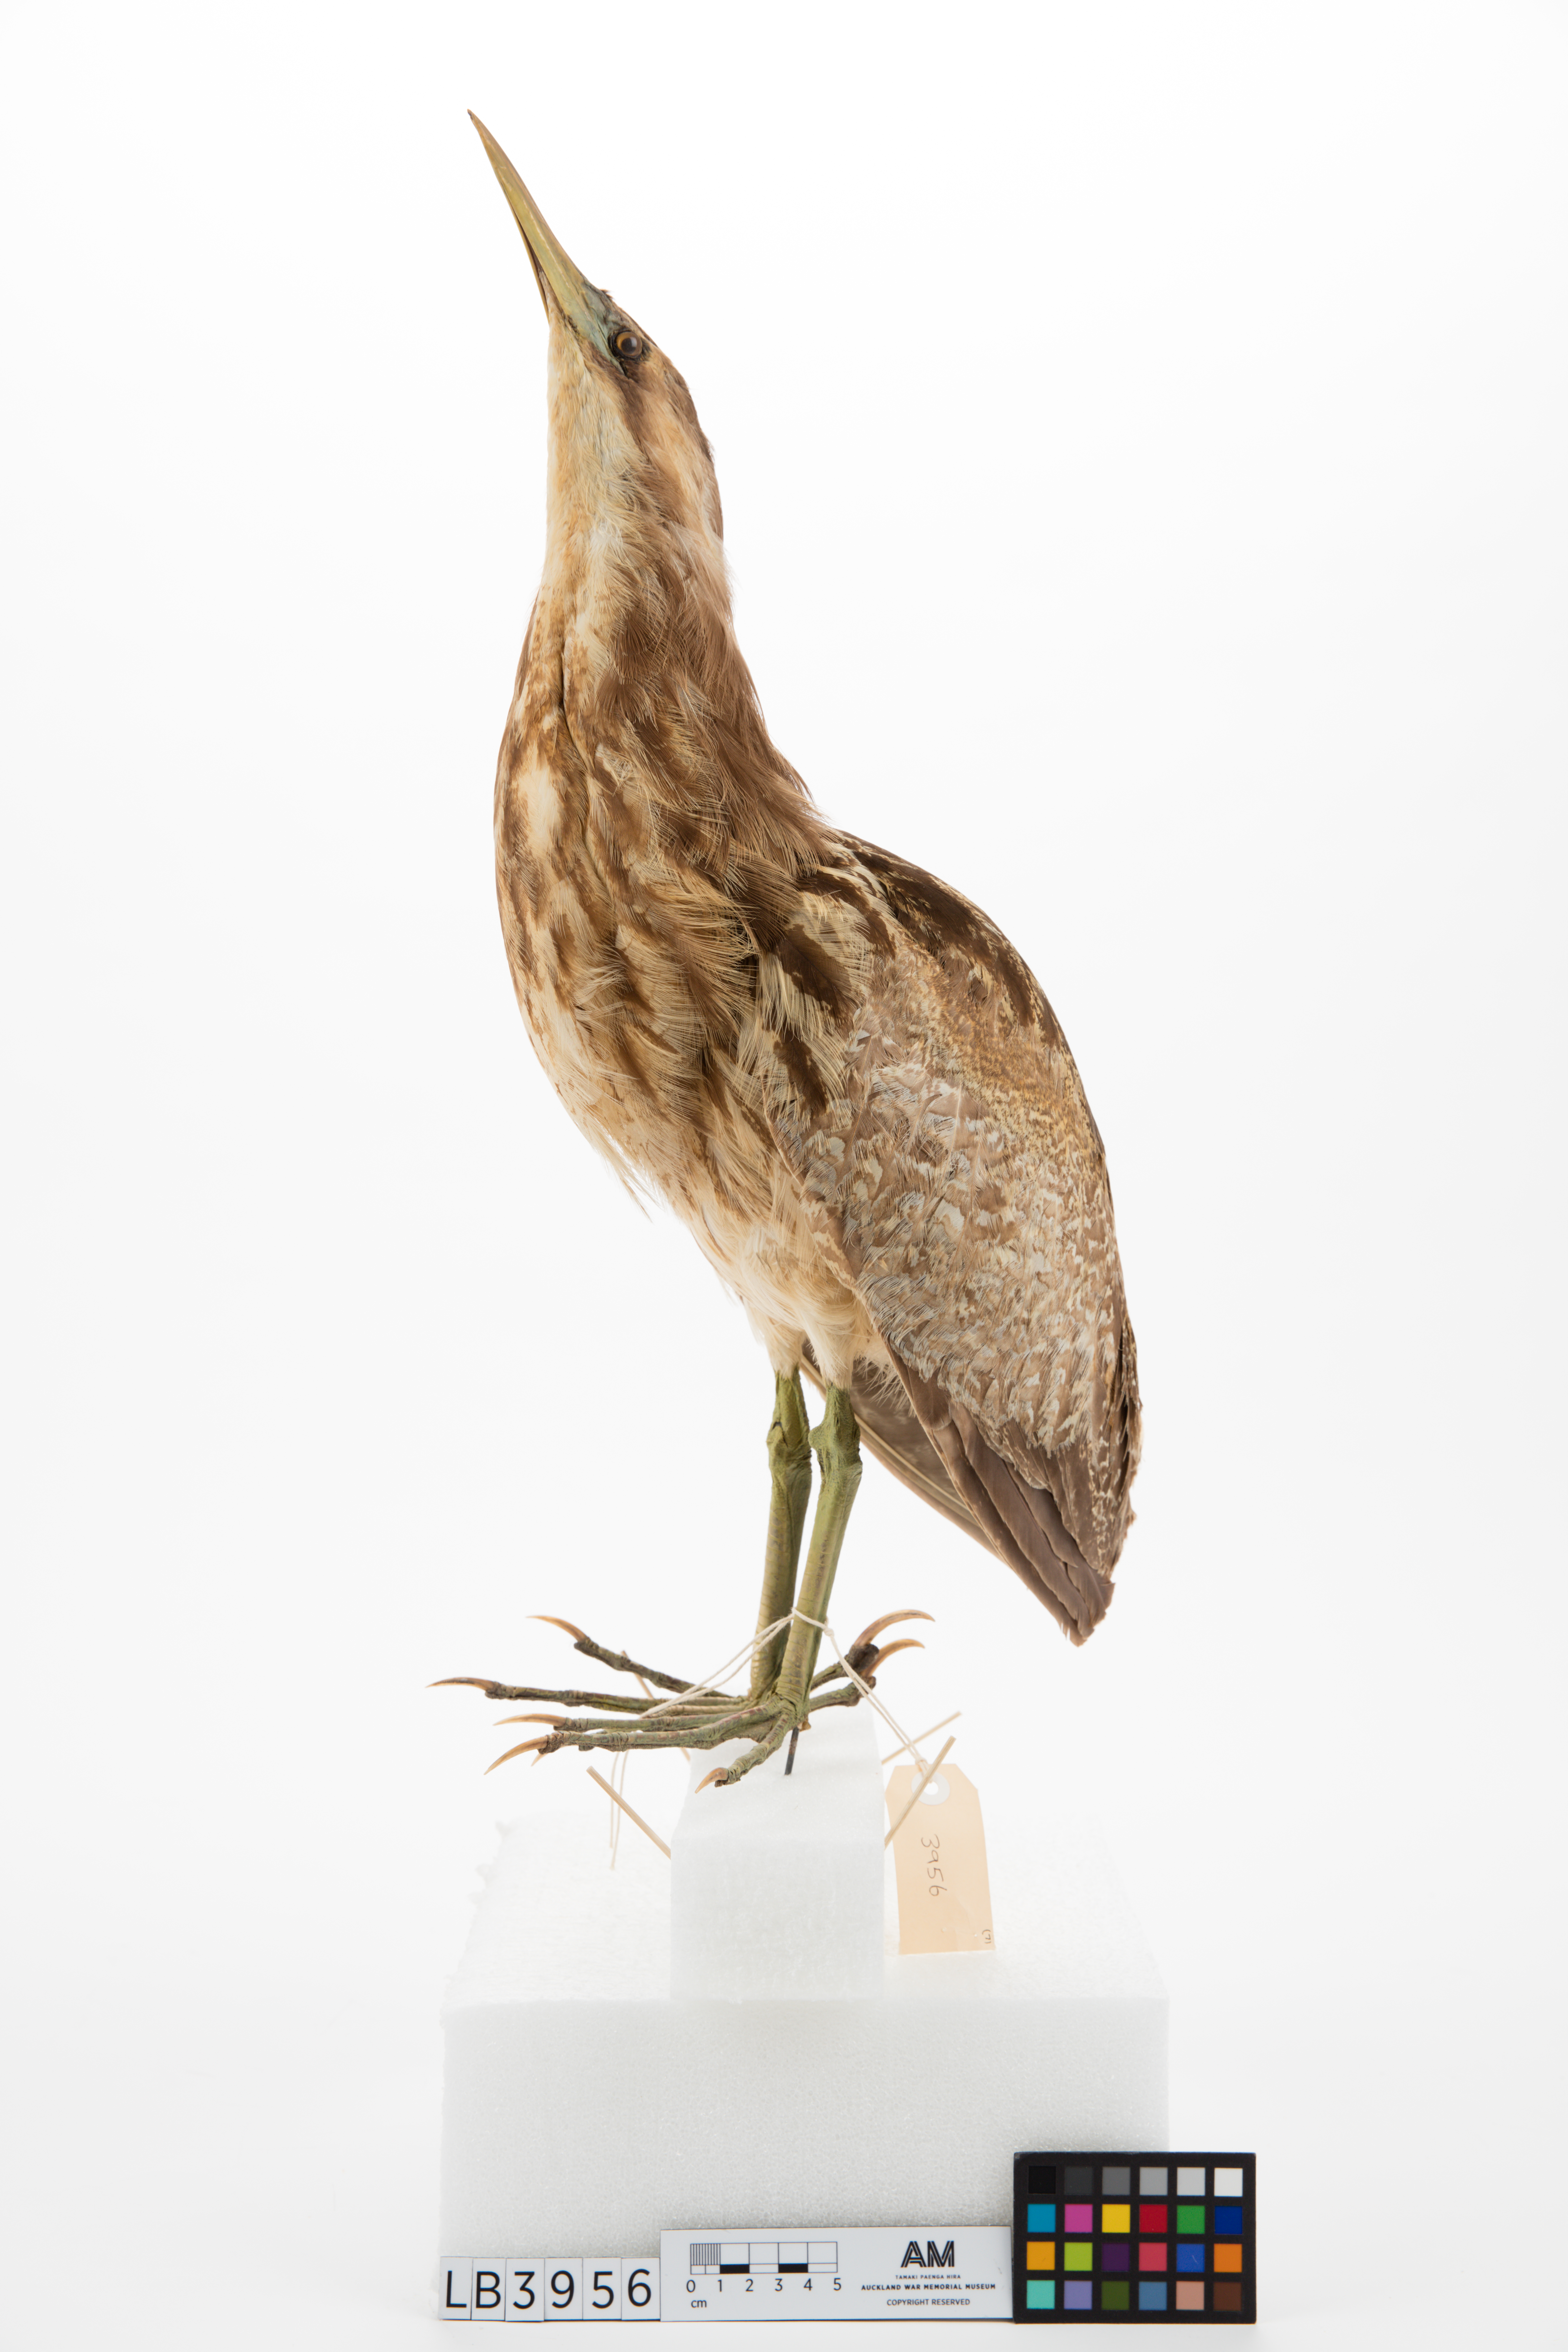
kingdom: Animalia
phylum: Chordata
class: Aves
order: Pelecaniformes
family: Ardeidae
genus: Botaurus
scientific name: Botaurus poiciloptilus
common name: Australasian bittern
